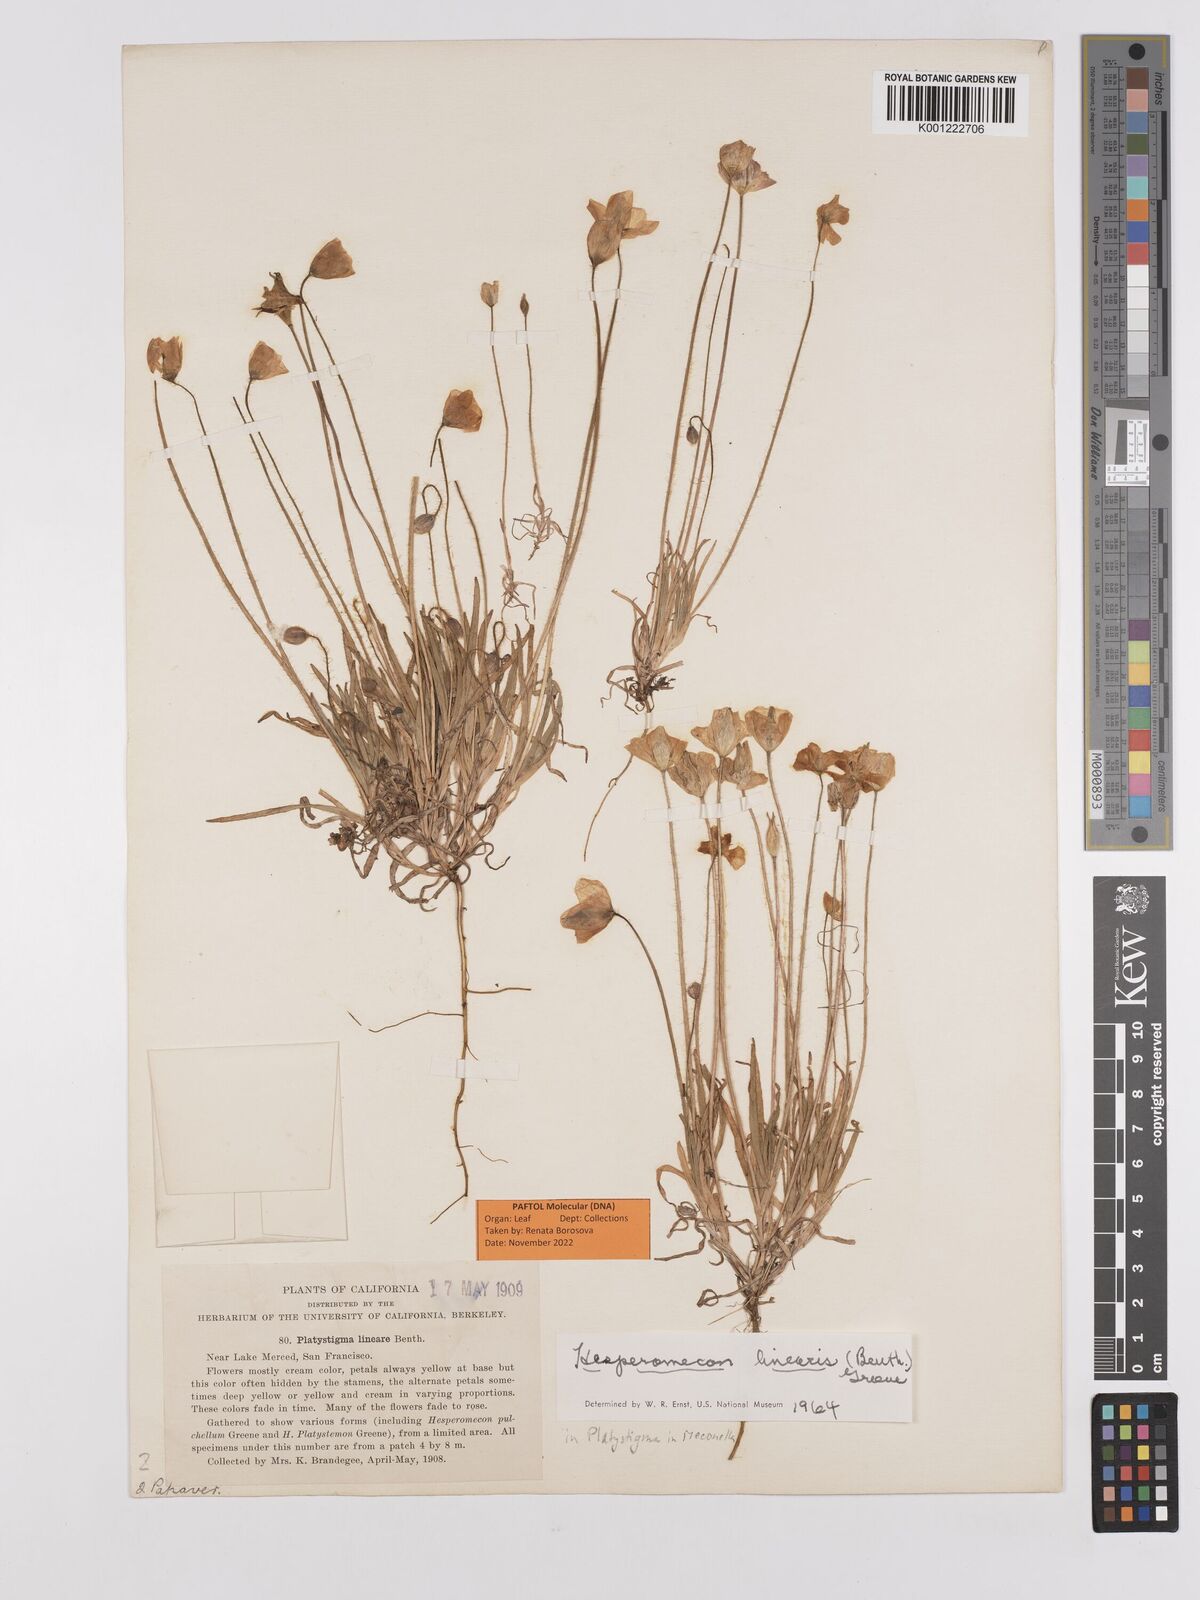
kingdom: Plantae
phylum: Tracheophyta
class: Magnoliopsida
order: Ranunculales
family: Papaveraceae
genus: Platystigma
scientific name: Platystigma lineare
